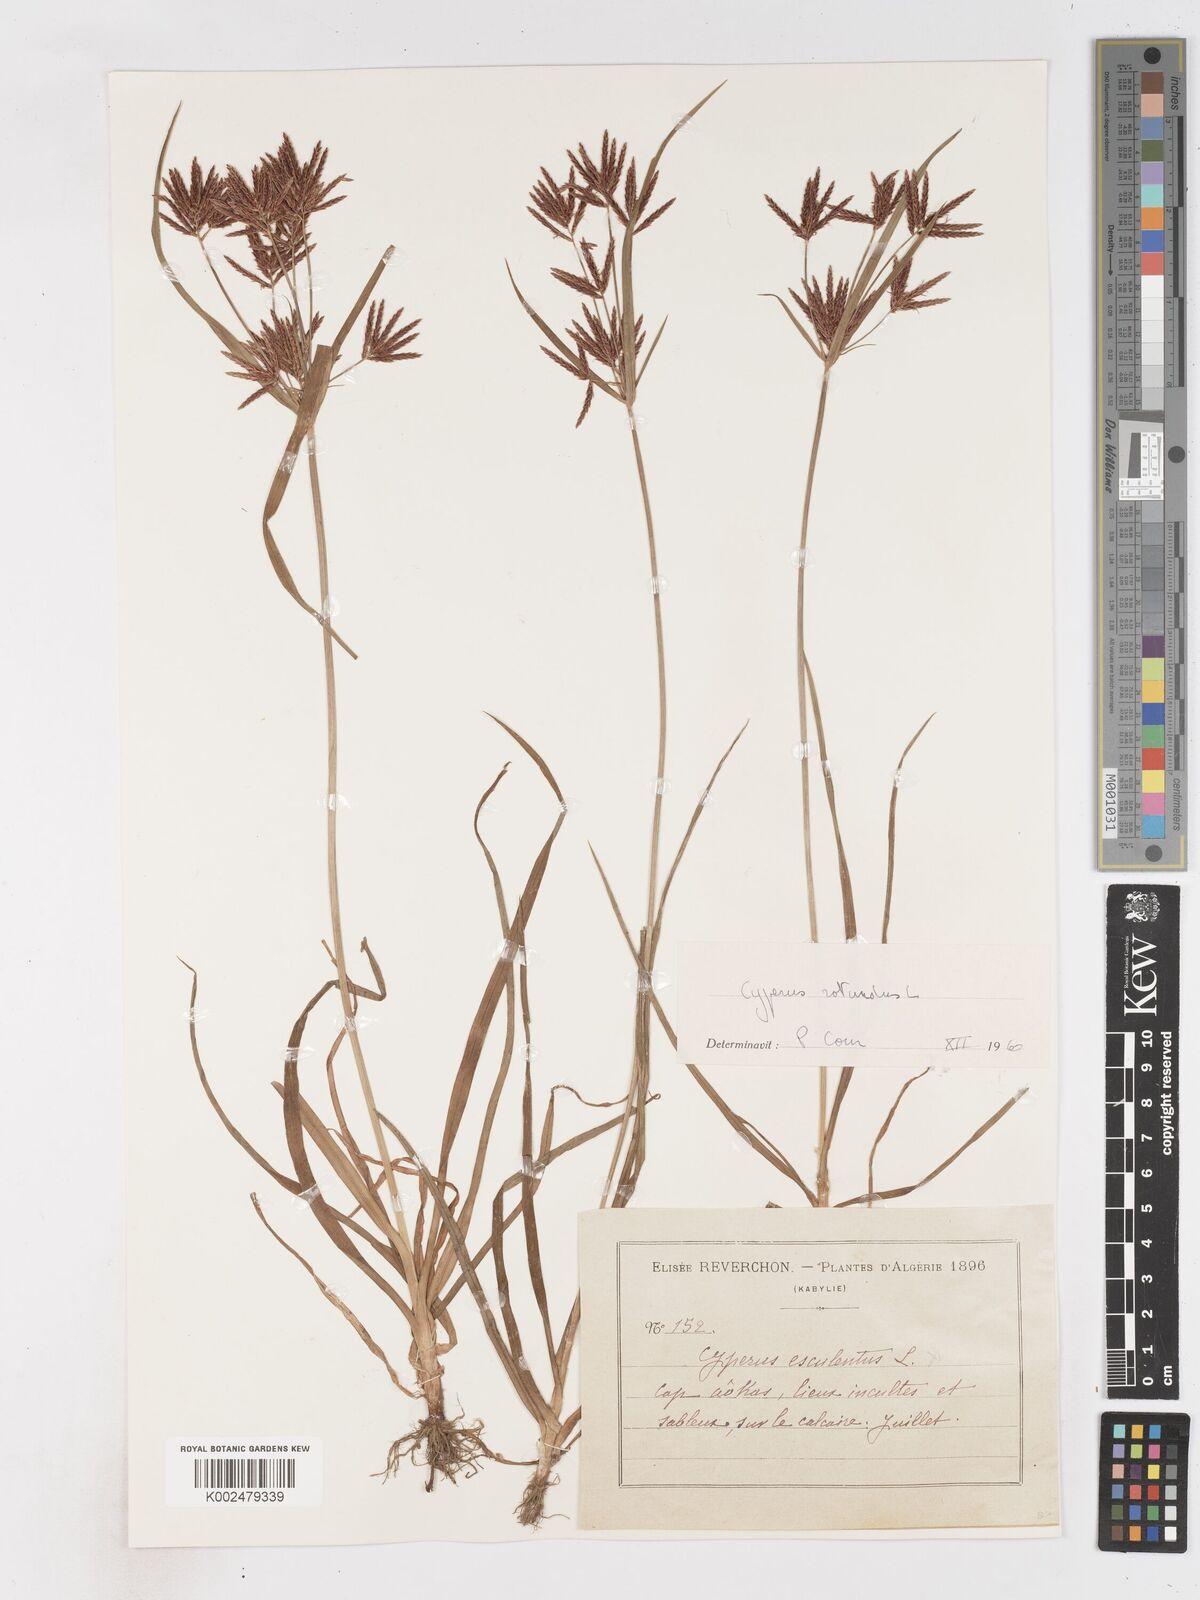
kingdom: Plantae
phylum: Tracheophyta
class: Liliopsida
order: Poales
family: Cyperaceae
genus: Cyperus
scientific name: Cyperus rotundus
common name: Nutgrass
